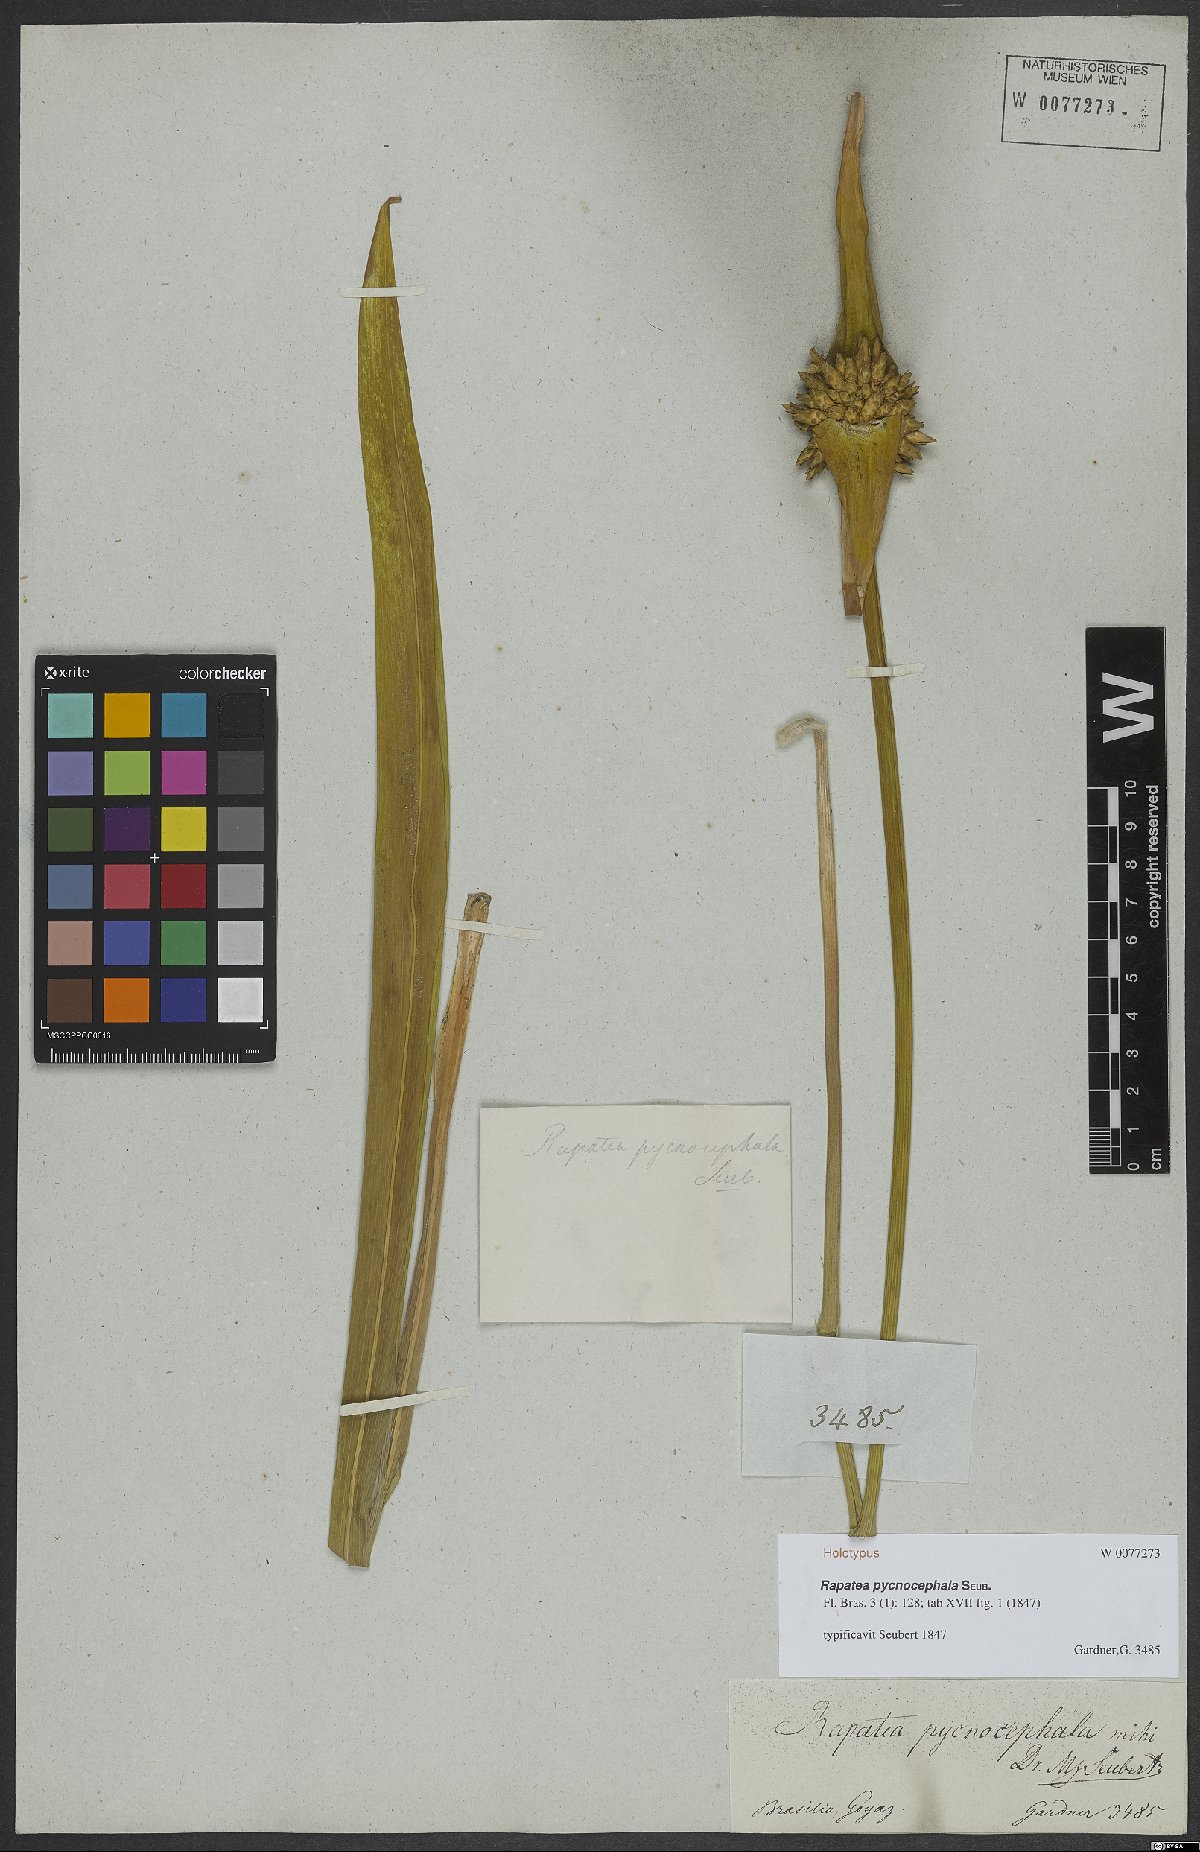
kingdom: Plantae
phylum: Tracheophyta
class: Liliopsida
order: Poales
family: Rapateaceae
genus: Rapatea
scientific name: Rapatea pycnocephala
